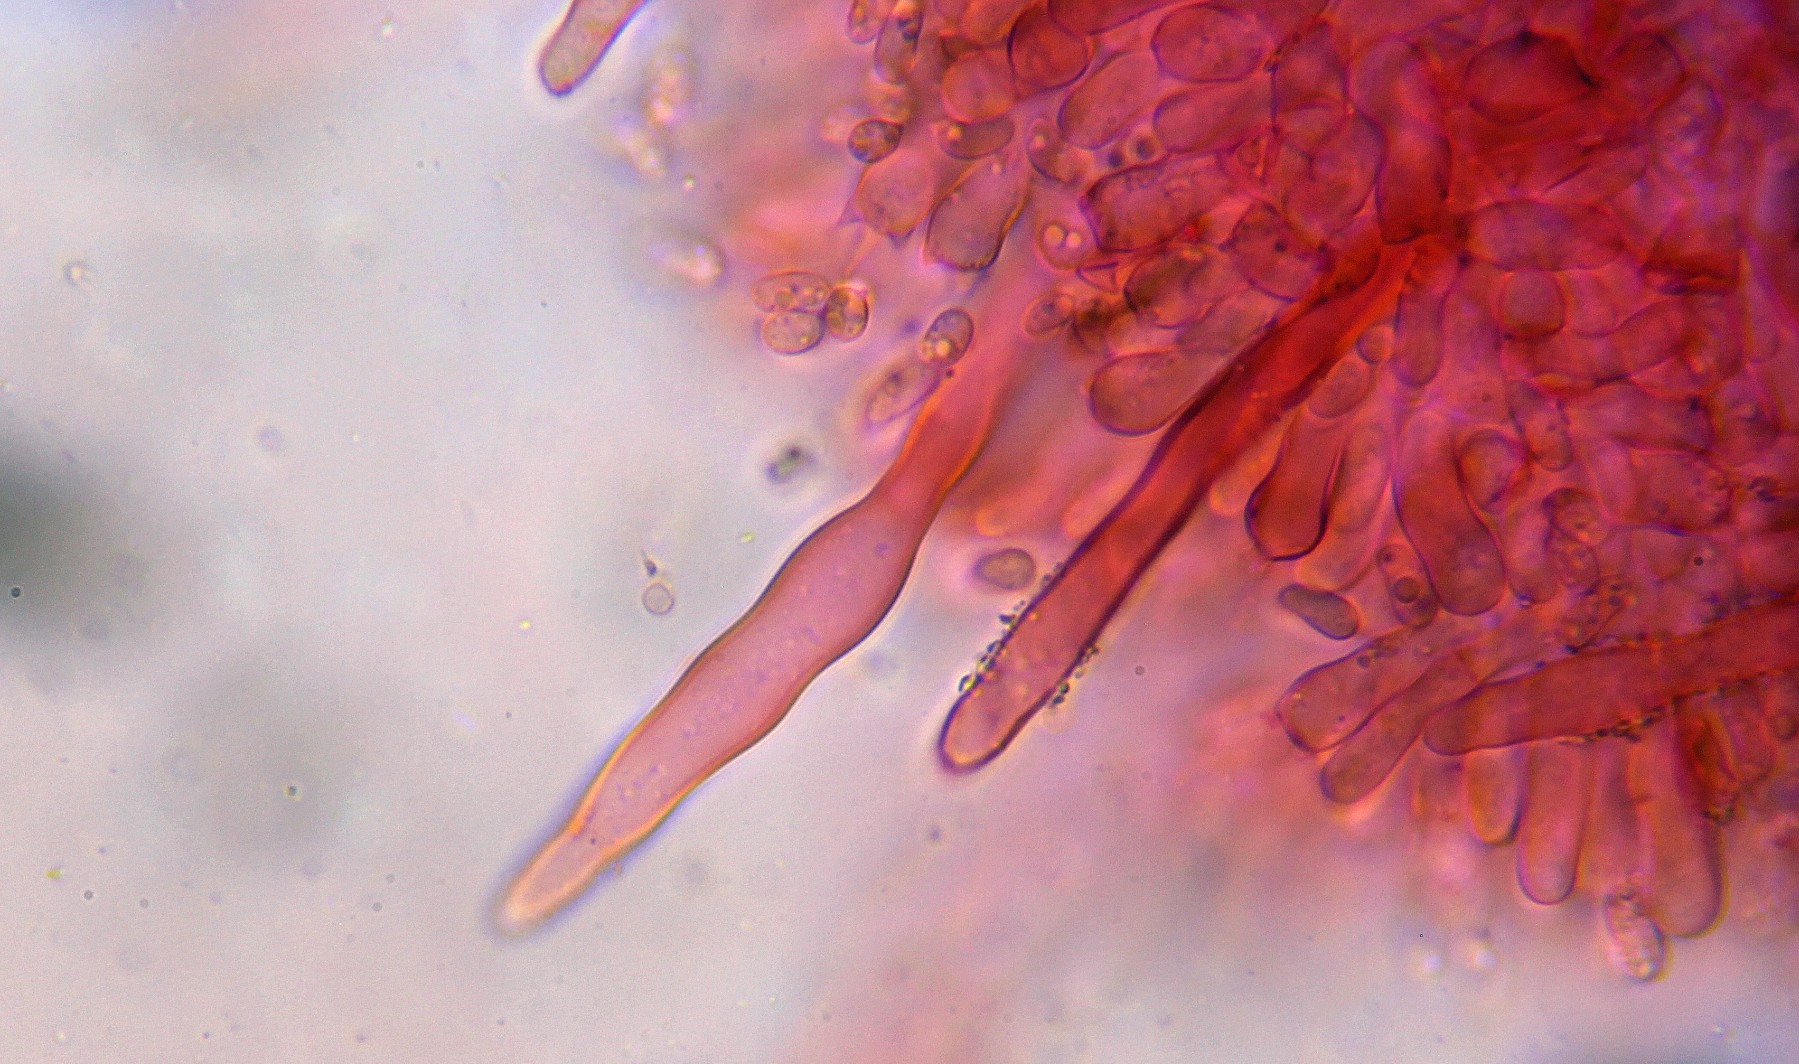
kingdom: Fungi
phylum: Basidiomycota
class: Agaricomycetes
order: Polyporales
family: Phanerochaetaceae
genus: Phanerochaete
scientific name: Phanerochaete sordida
